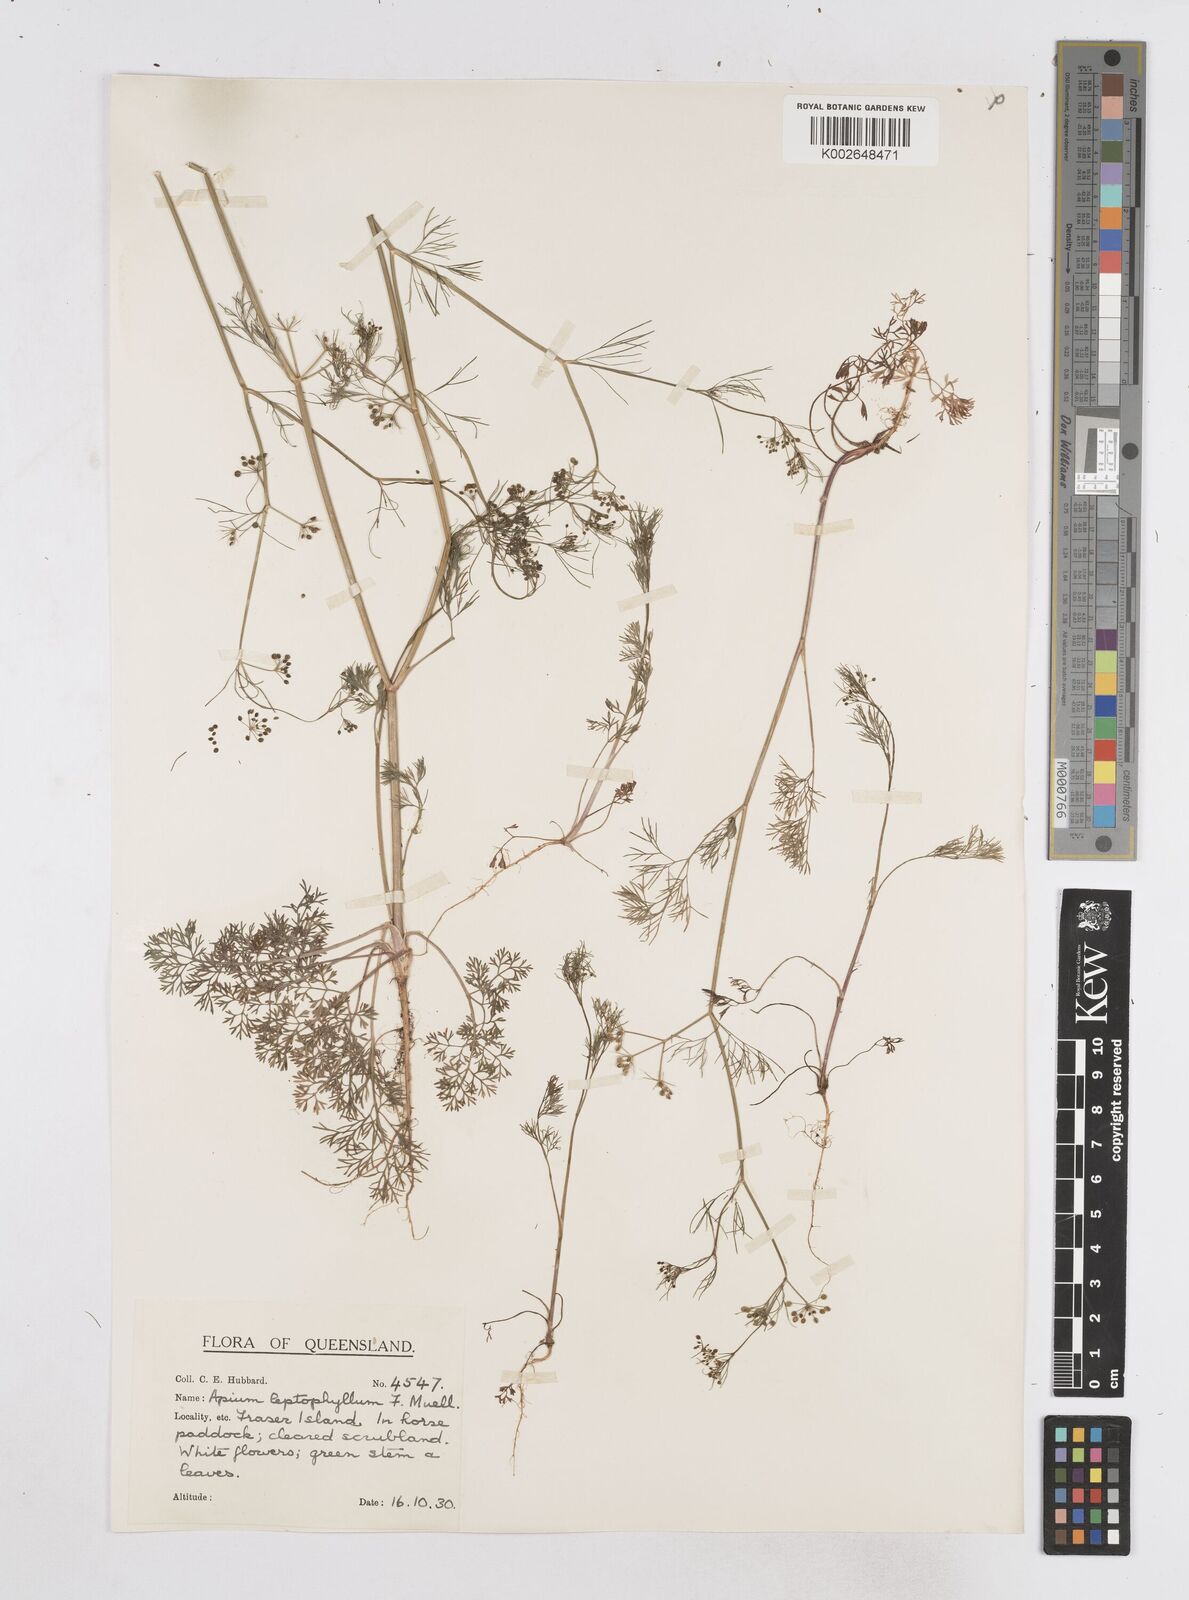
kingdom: Plantae
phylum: Tracheophyta
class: Magnoliopsida
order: Apiales
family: Apiaceae
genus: Cyclospermum
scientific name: Cyclospermum leptophyllum
